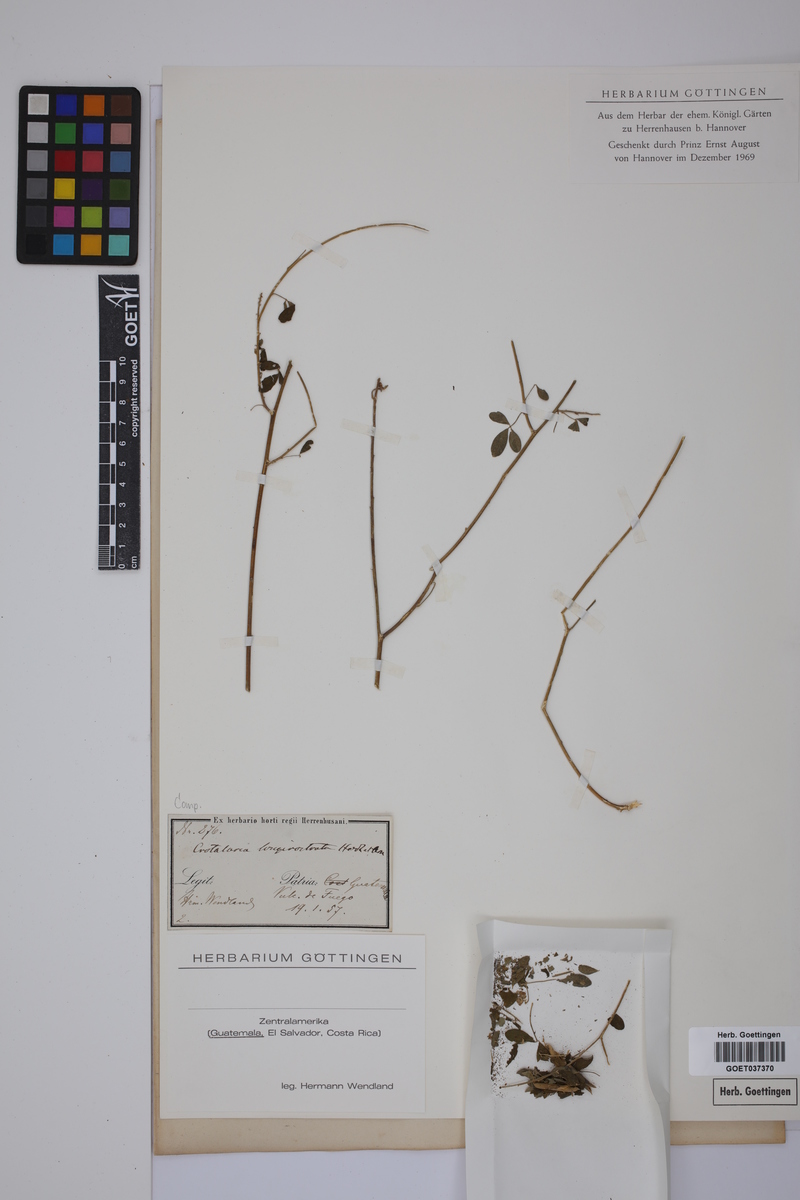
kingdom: Plantae
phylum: Tracheophyta
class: Magnoliopsida
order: Fabales
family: Fabaceae
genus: Crotalaria
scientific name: Crotalaria longiclavata
